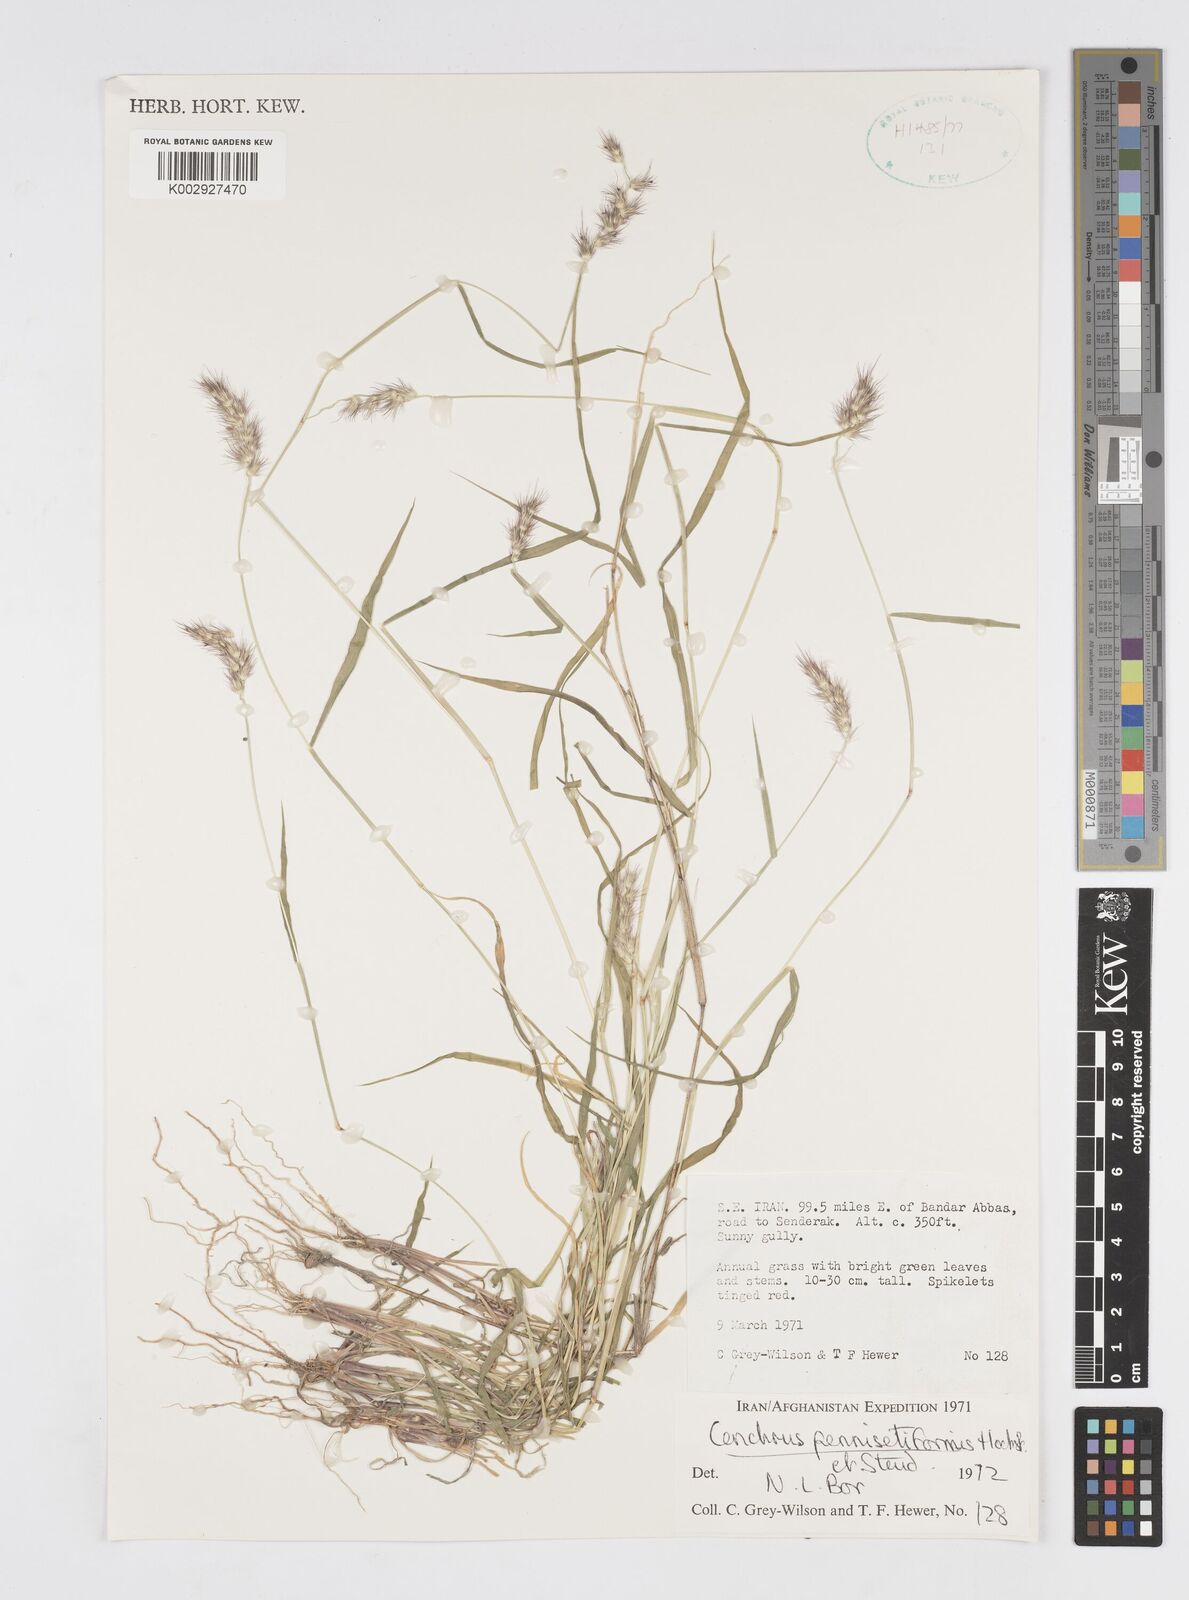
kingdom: Plantae
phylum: Tracheophyta
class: Liliopsida
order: Poales
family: Poaceae
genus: Cenchrus
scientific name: Cenchrus pennisetiformis
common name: Cloncurry
